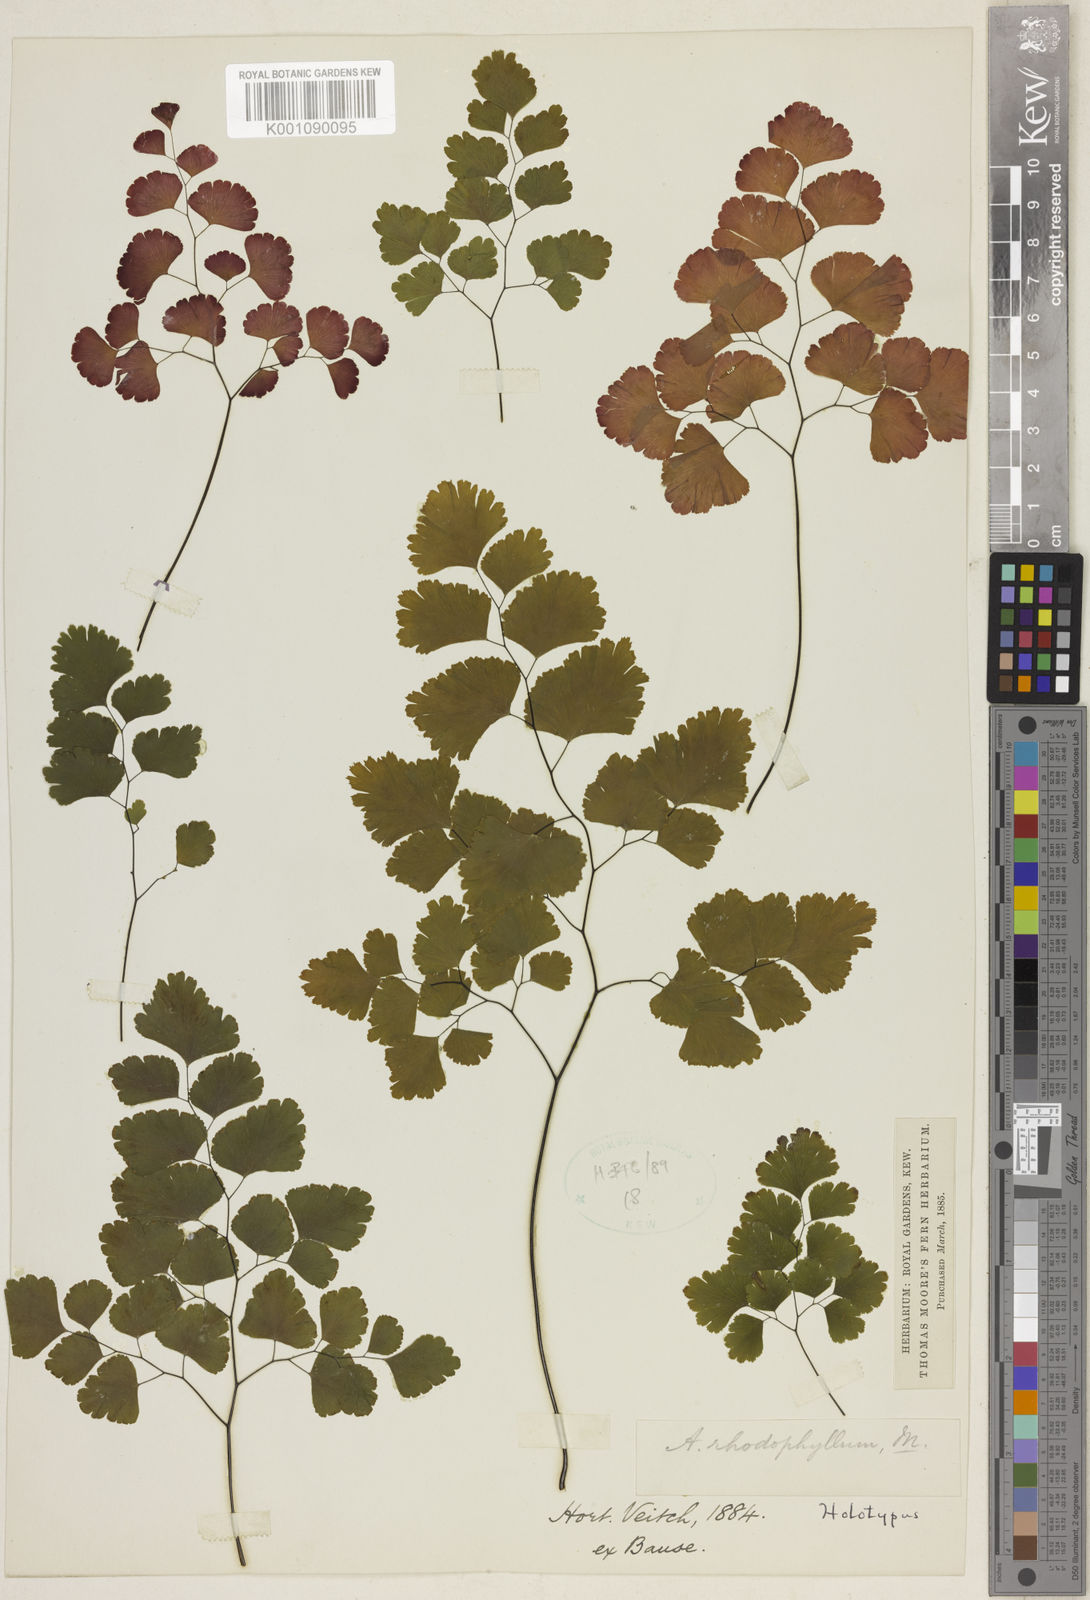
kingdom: Plantae
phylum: Tracheophyta
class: Polypodiopsida
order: Polypodiales
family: Pteridaceae
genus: Adiantum
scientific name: Adiantum tenerum
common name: Fan maidenhair
